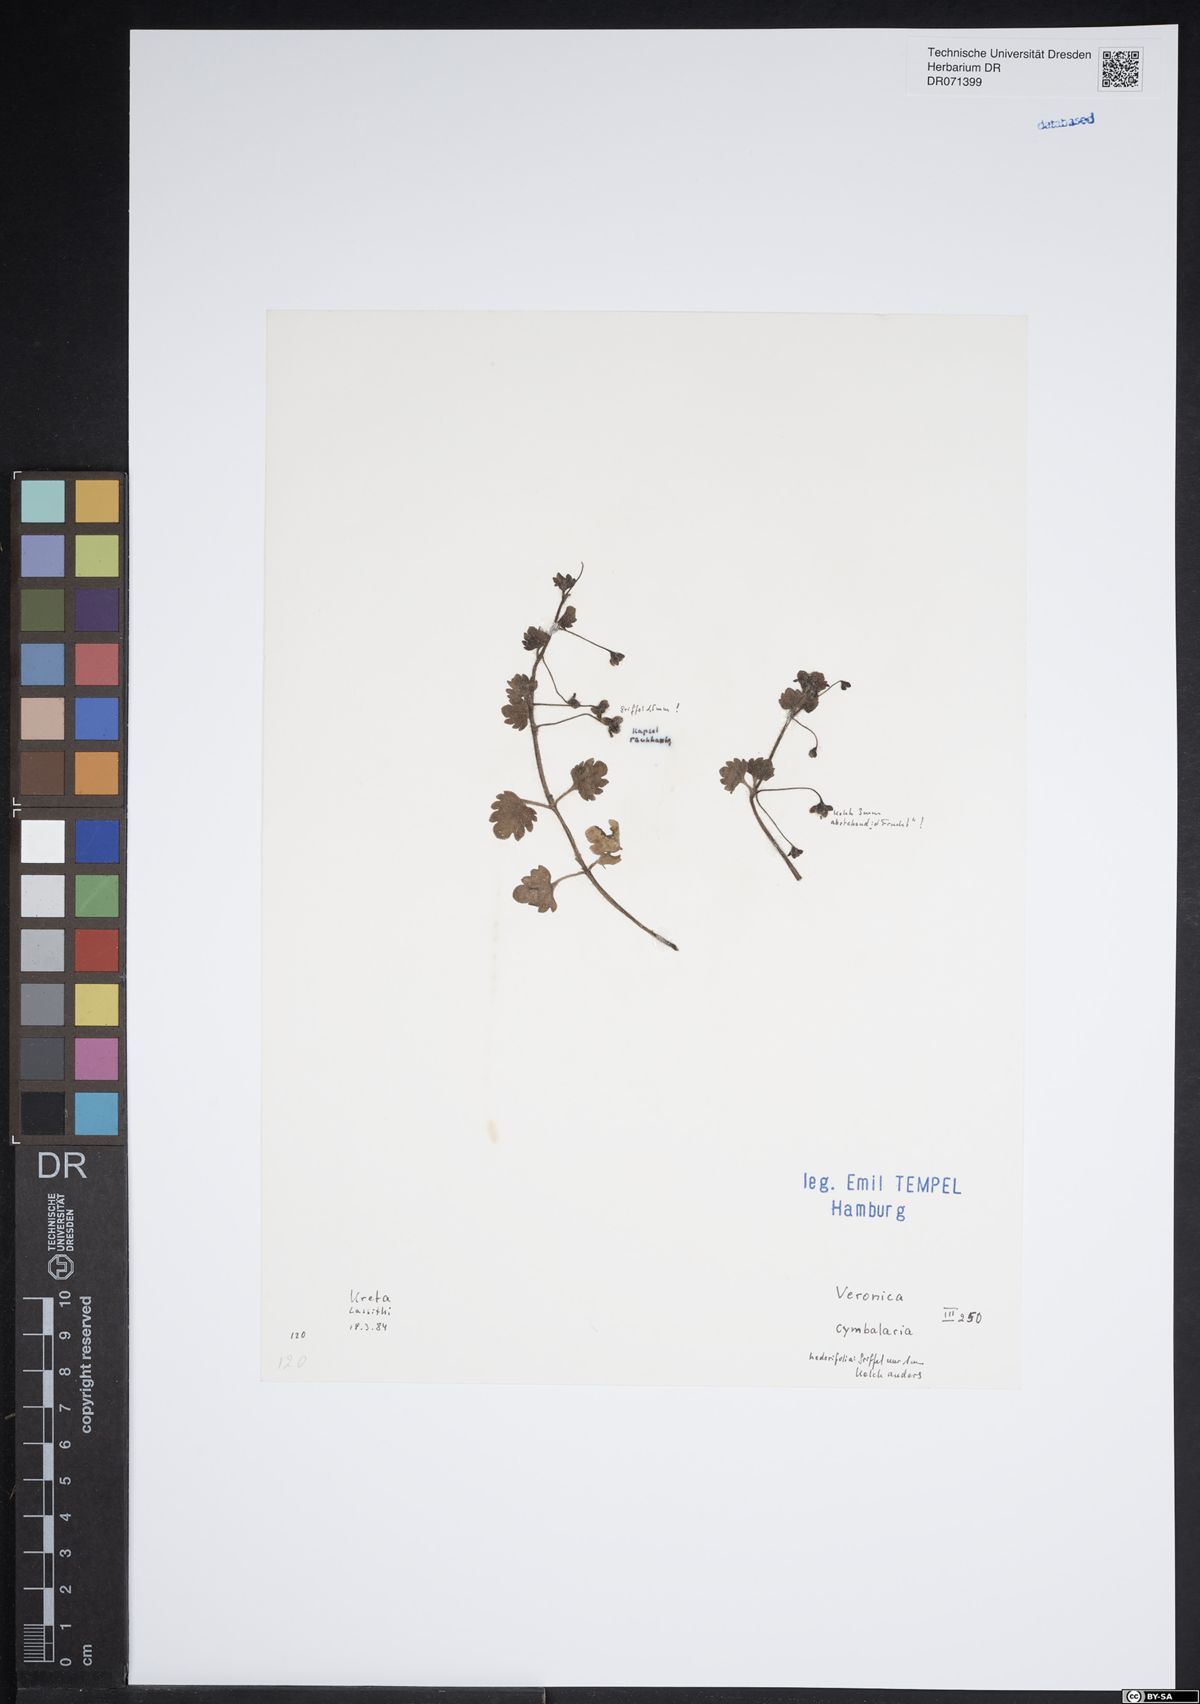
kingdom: Plantae
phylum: Tracheophyta
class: Magnoliopsida
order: Lamiales
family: Plantaginaceae
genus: Veronica
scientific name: Veronica cymbalaria
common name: Pale speedwell
